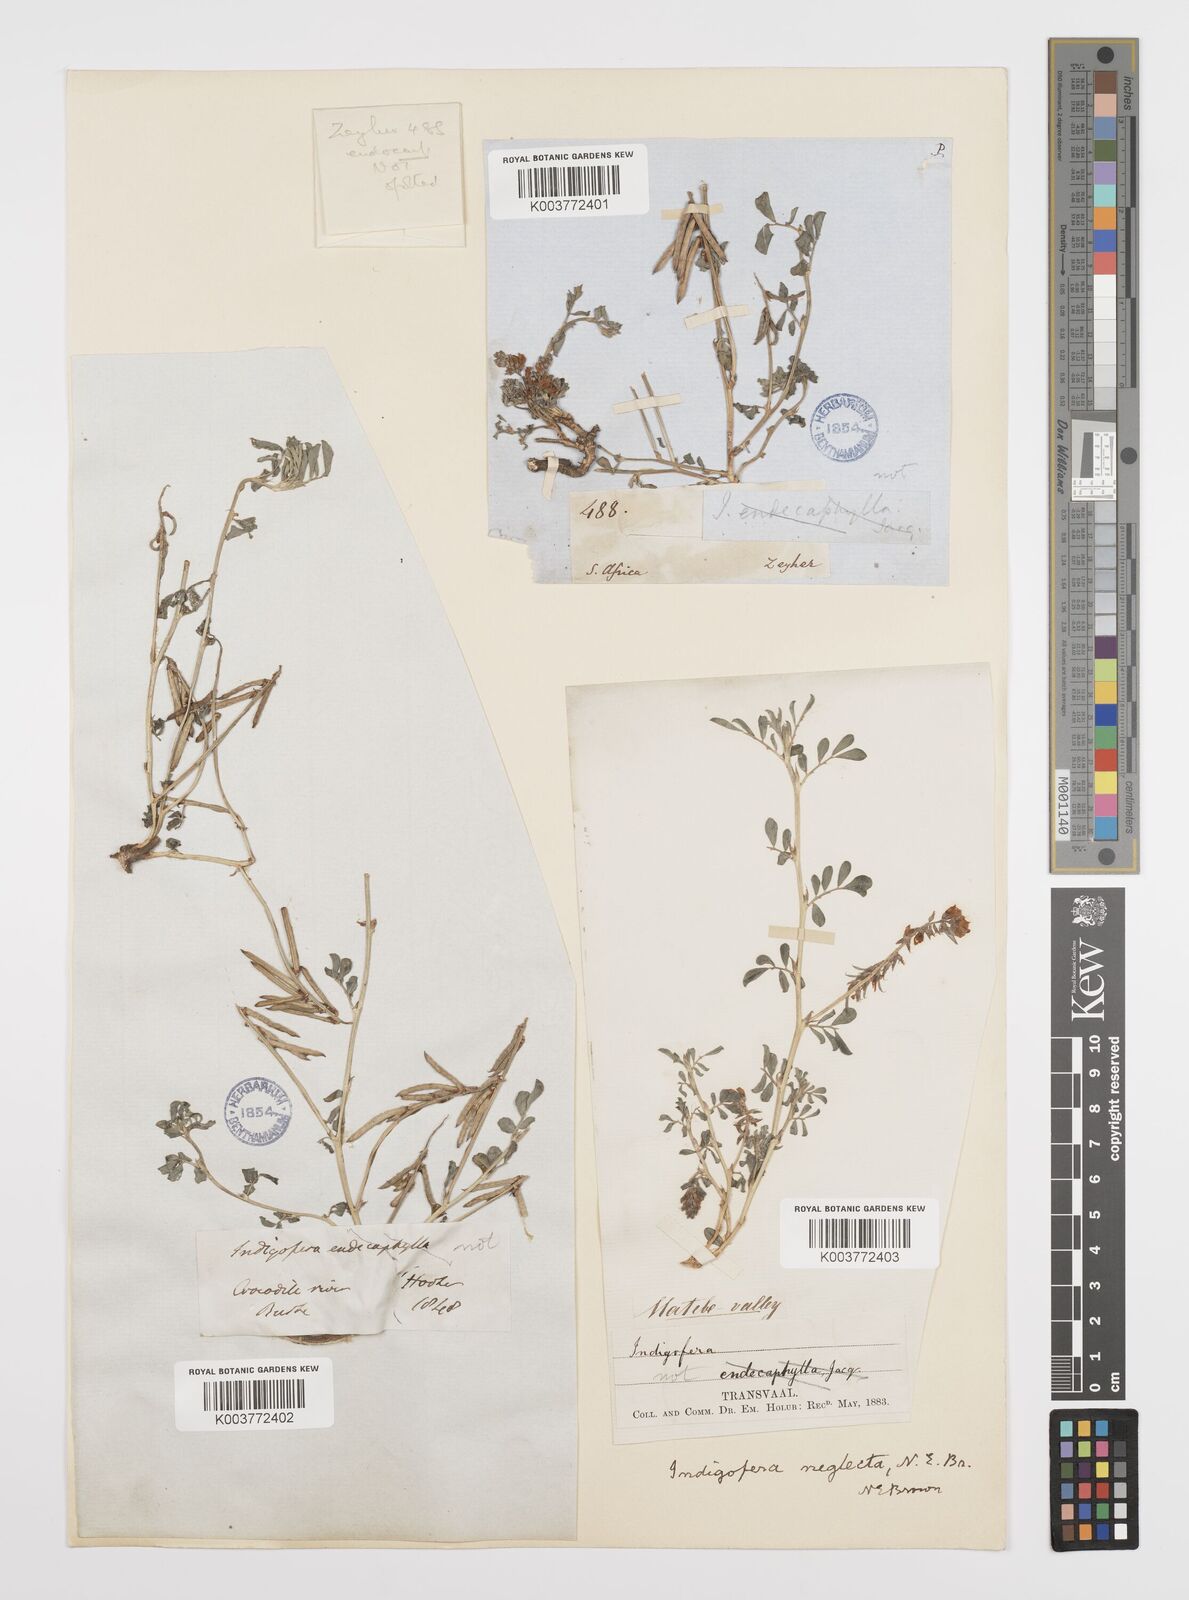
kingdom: Plantae
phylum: Tracheophyta
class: Magnoliopsida
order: Fabales
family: Fabaceae
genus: Indigofera
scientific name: Indigofera spicata
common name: Creeping indigo
